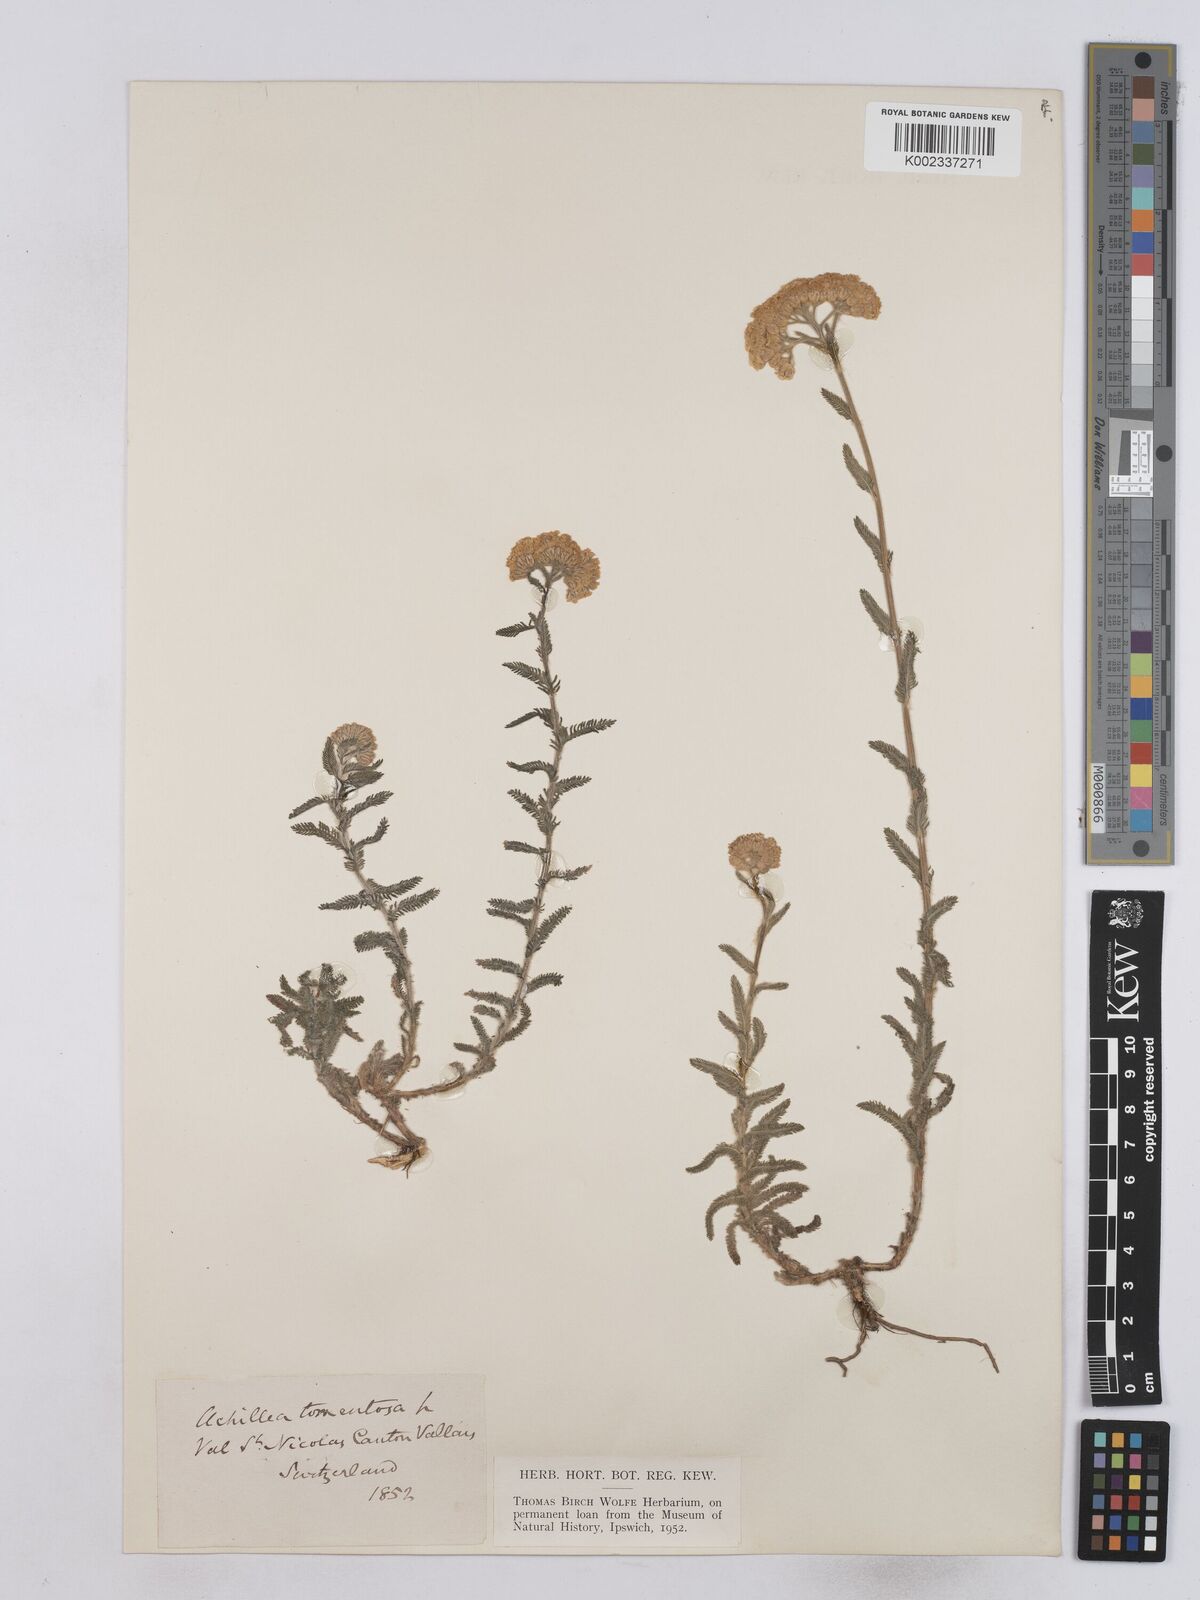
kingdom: Plantae
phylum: Tracheophyta
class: Magnoliopsida
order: Asterales
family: Asteraceae
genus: Achillea
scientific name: Achillea tomentosa
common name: Yellow milfoil
